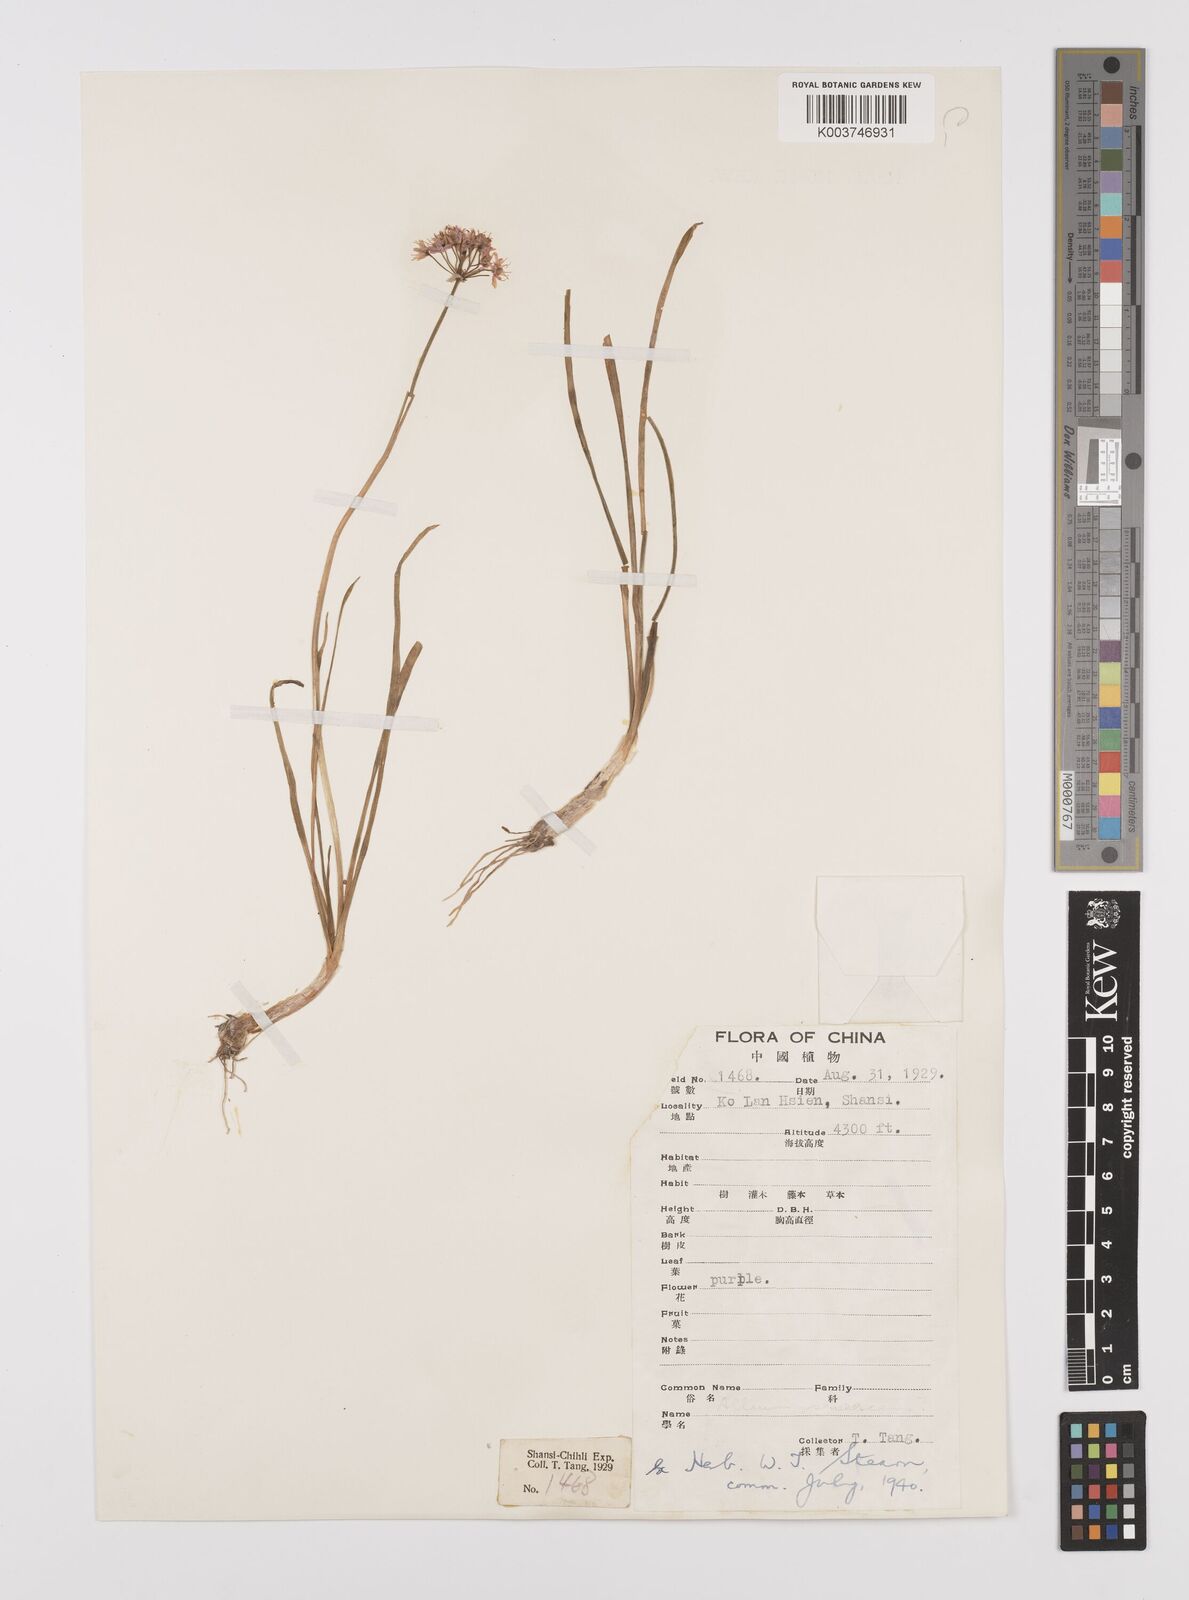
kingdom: Plantae
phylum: Tracheophyta
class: Liliopsida
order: Asparagales
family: Amaryllidaceae
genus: Allium
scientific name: Allium
